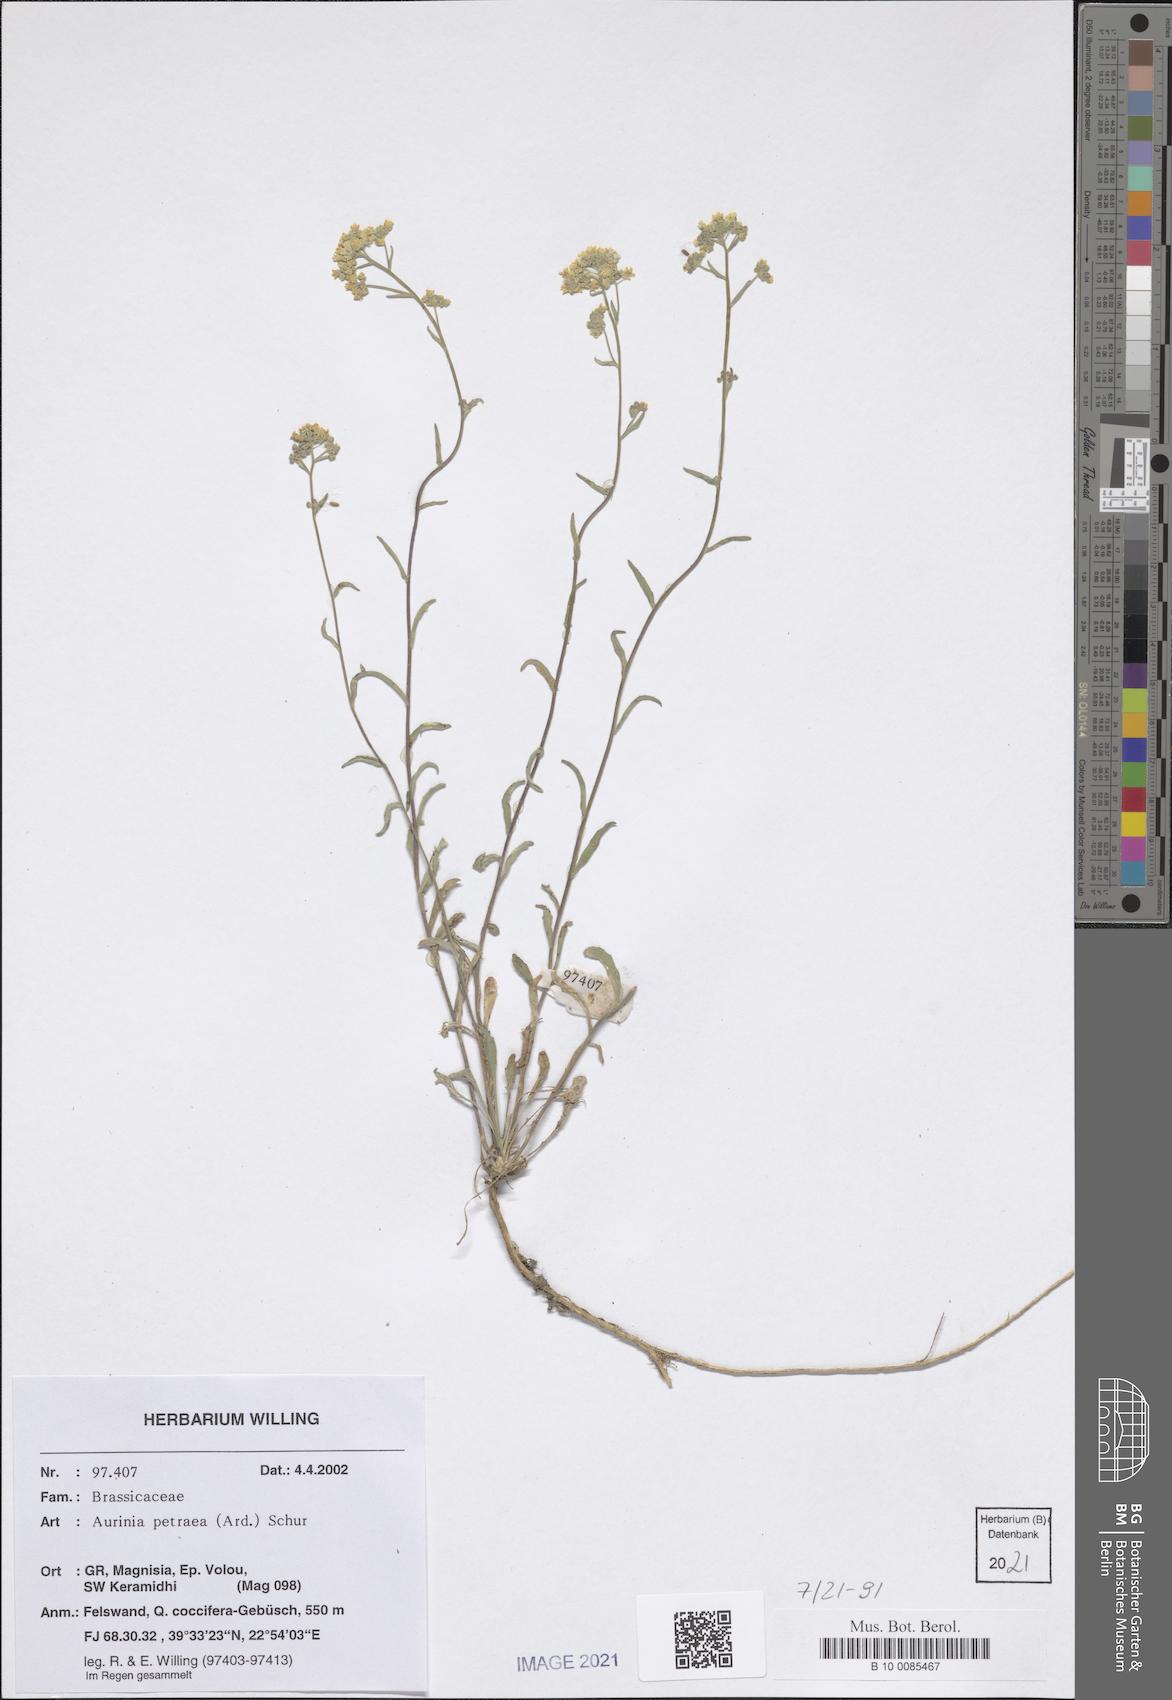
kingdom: Plantae
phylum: Tracheophyta
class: Magnoliopsida
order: Brassicales
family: Brassicaceae
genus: Aurinia
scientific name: Aurinia petraea
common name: Goldentuft
